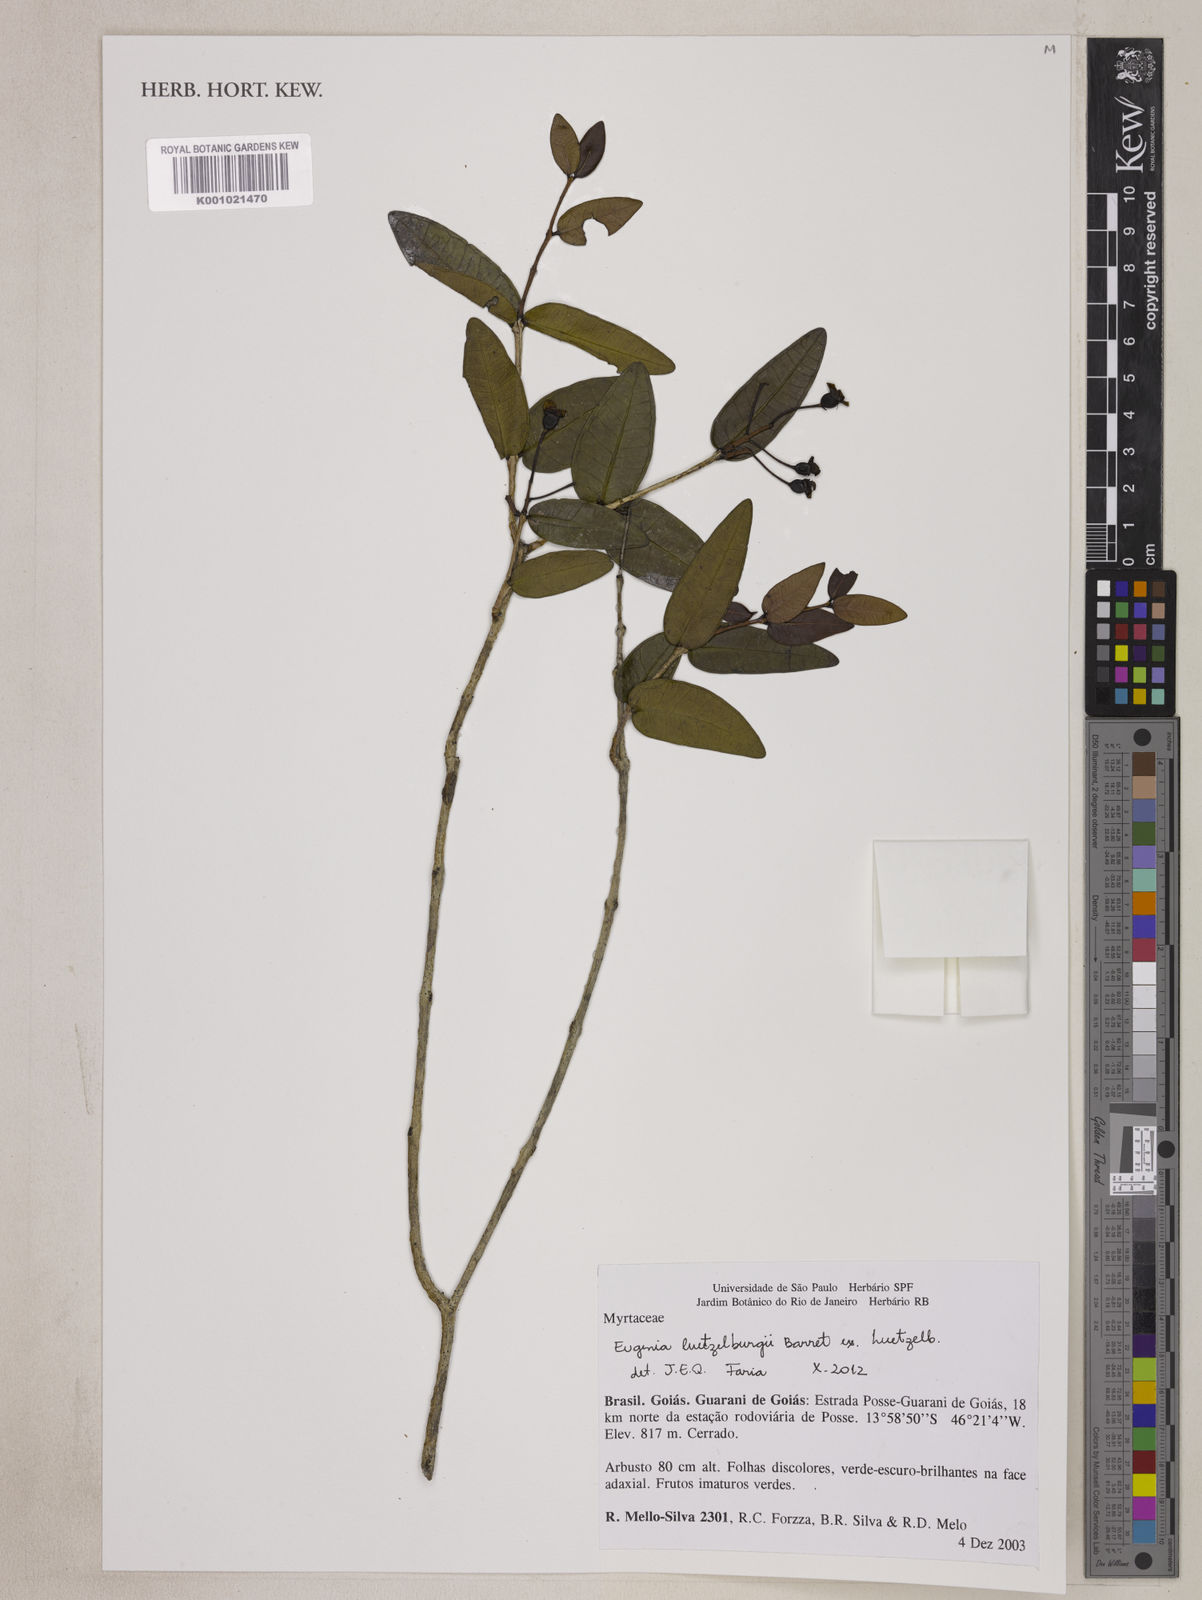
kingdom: Plantae
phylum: Tracheophyta
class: Magnoliopsida
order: Myrtales
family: Myrtaceae
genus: Eugenia
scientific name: Eugenia
